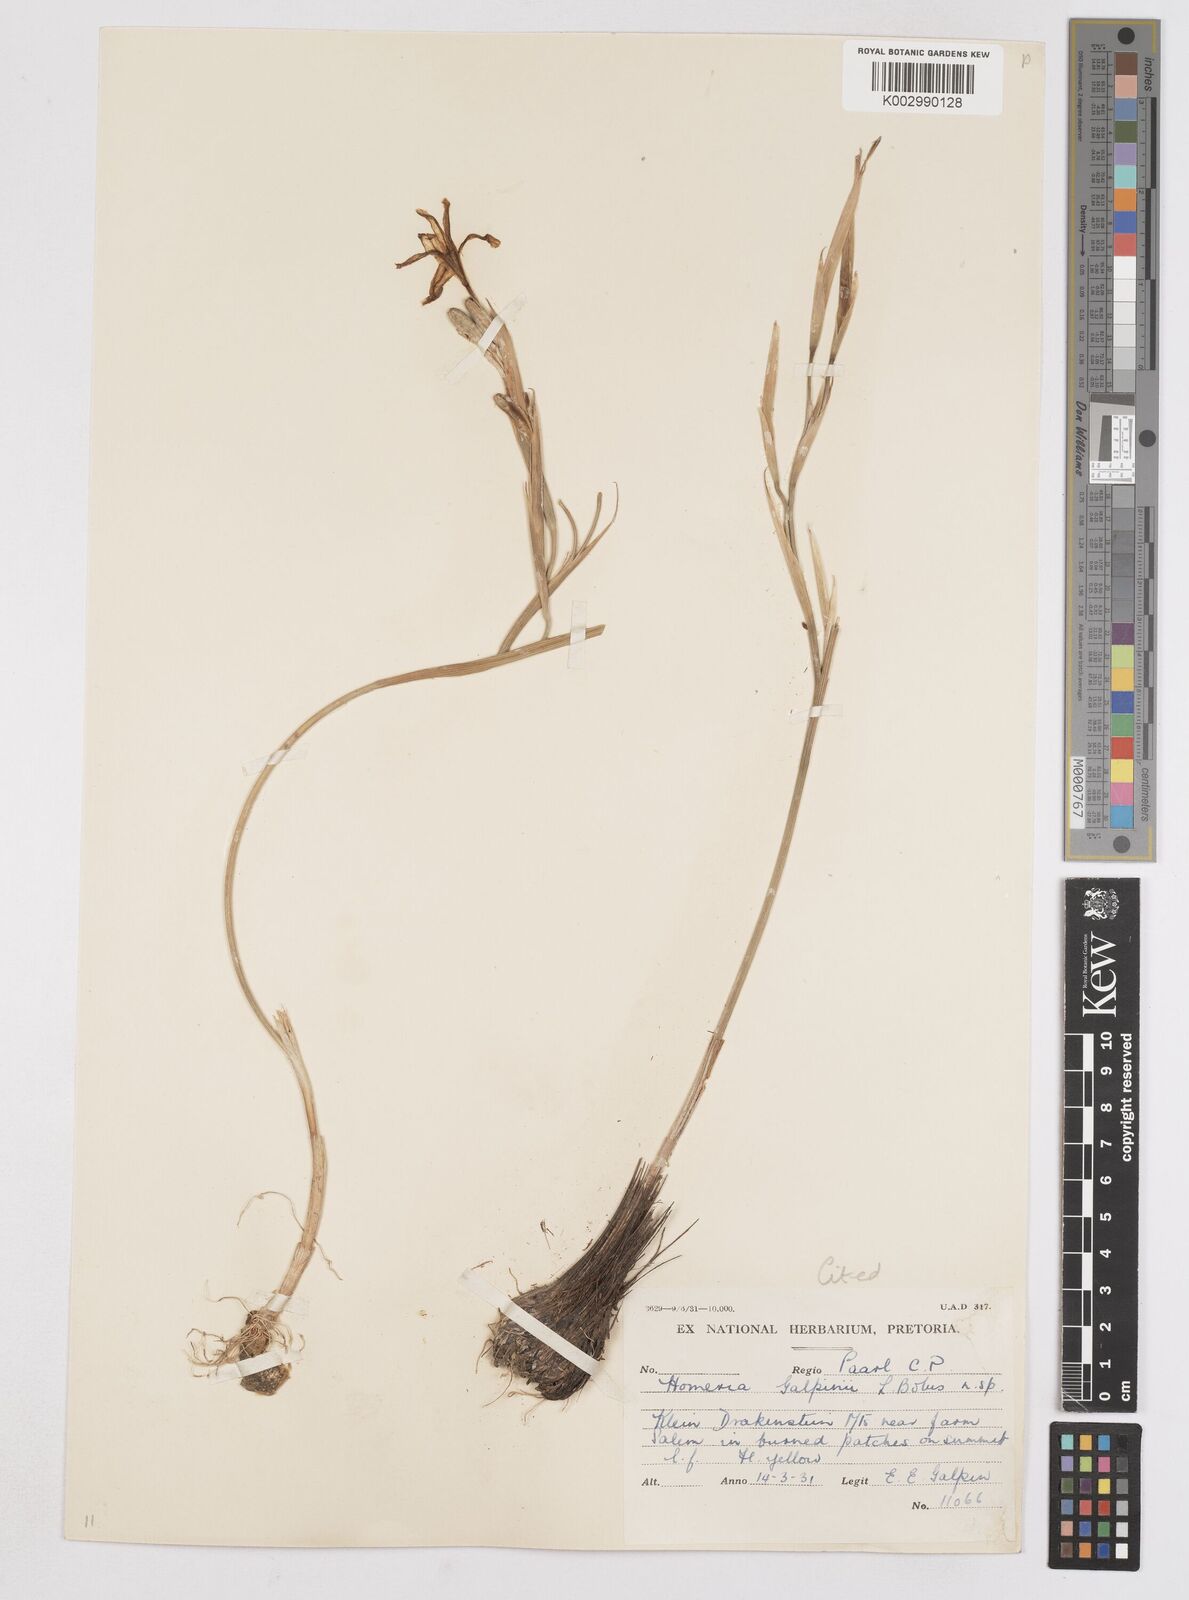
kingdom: Plantae
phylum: Tracheophyta
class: Liliopsida
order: Asparagales
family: Iridaceae
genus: Moraea
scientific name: Moraea
